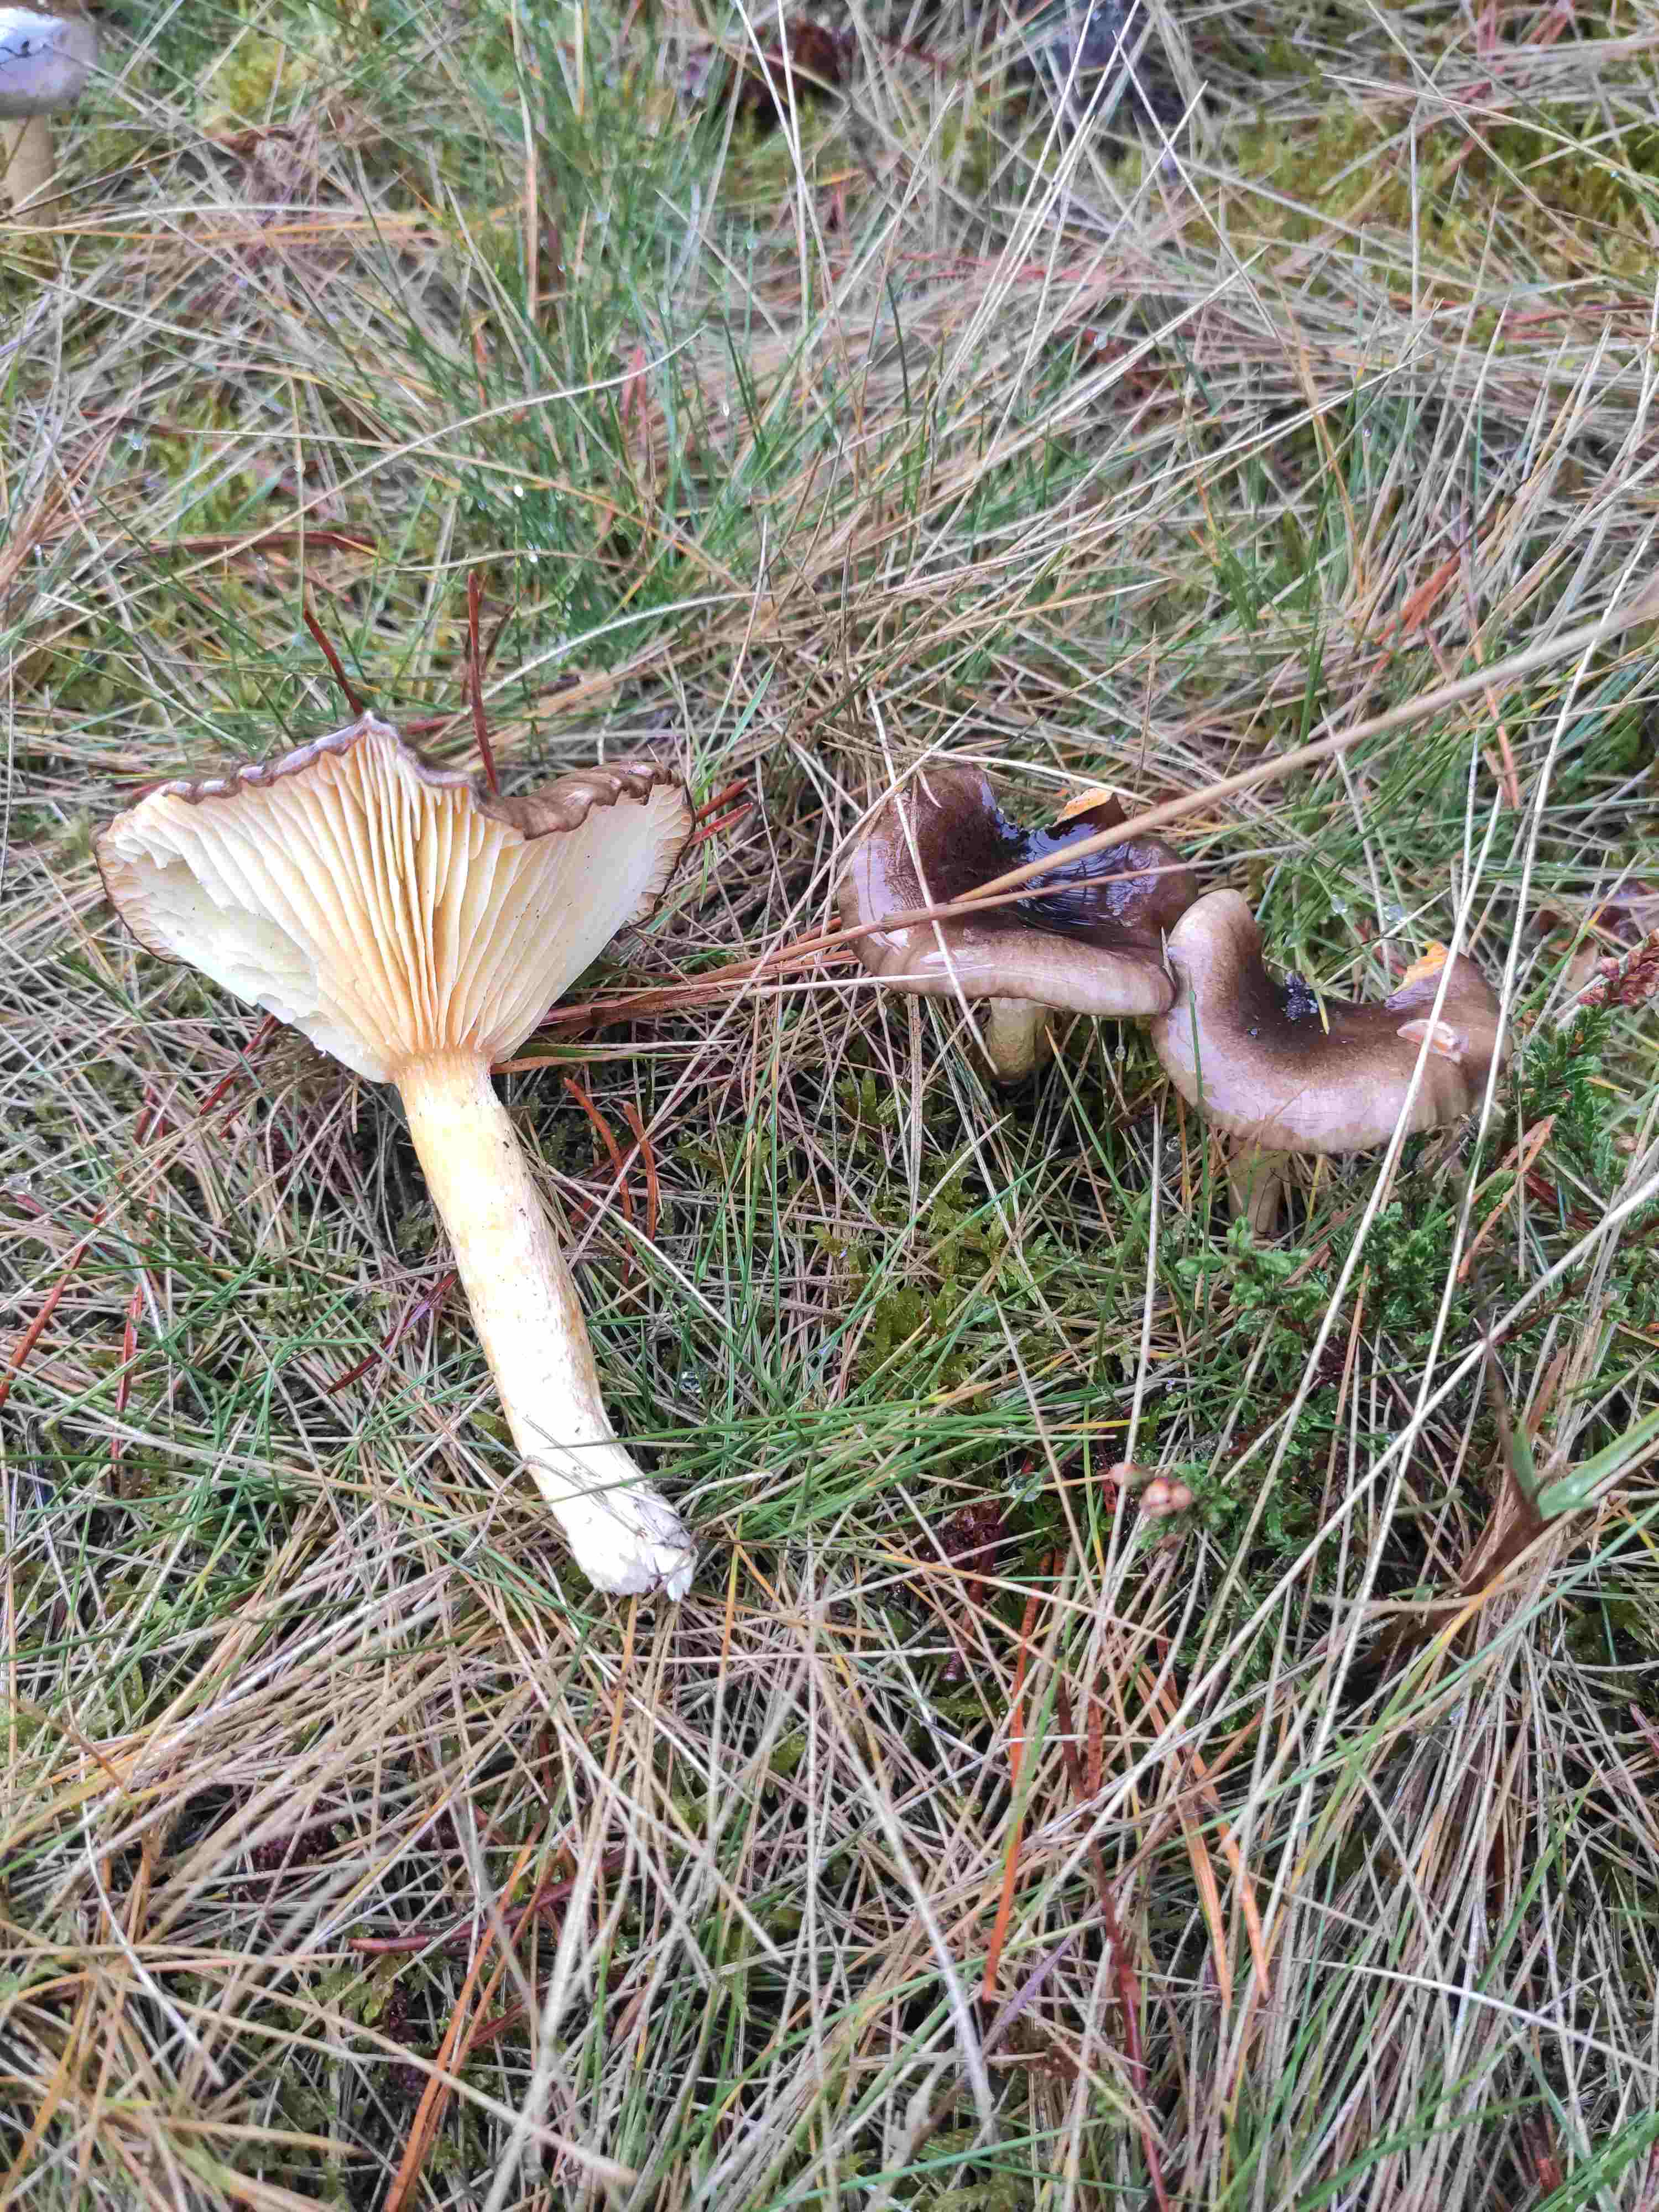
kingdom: Fungi
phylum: Basidiomycota
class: Agaricomycetes
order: Agaricales
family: Hygrophoraceae
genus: Hygrophorus
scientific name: Hygrophorus hypothejus
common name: frost-sneglehat
